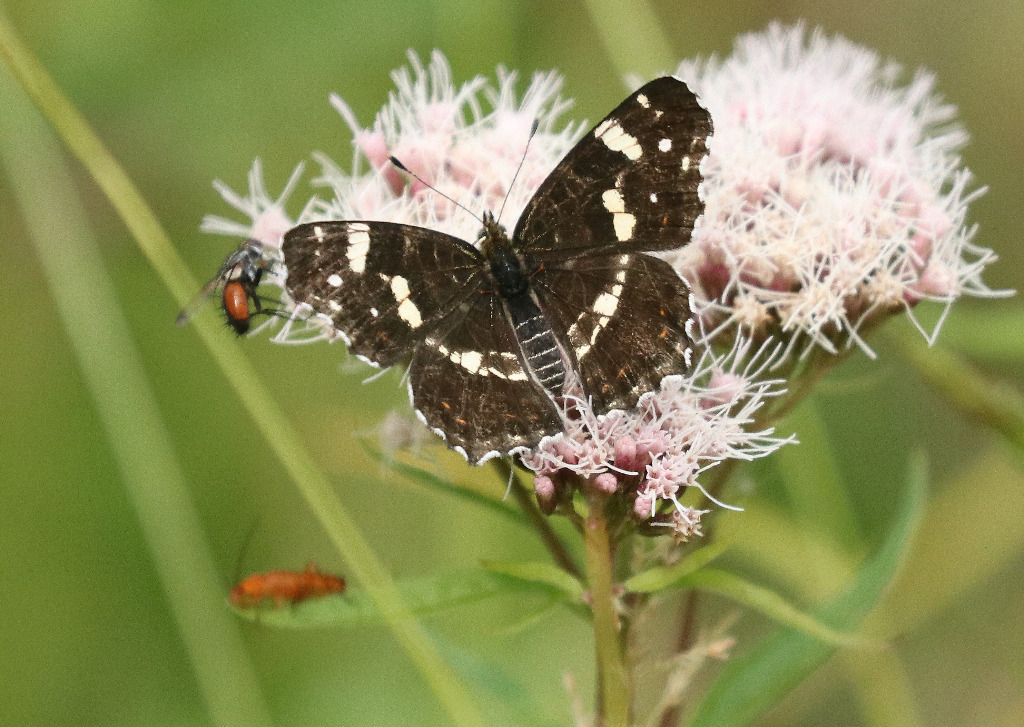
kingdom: Animalia
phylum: Arthropoda
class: Insecta
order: Lepidoptera
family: Nymphalidae
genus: Araschnia
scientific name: Araschnia levana
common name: Nældesommerfugl
